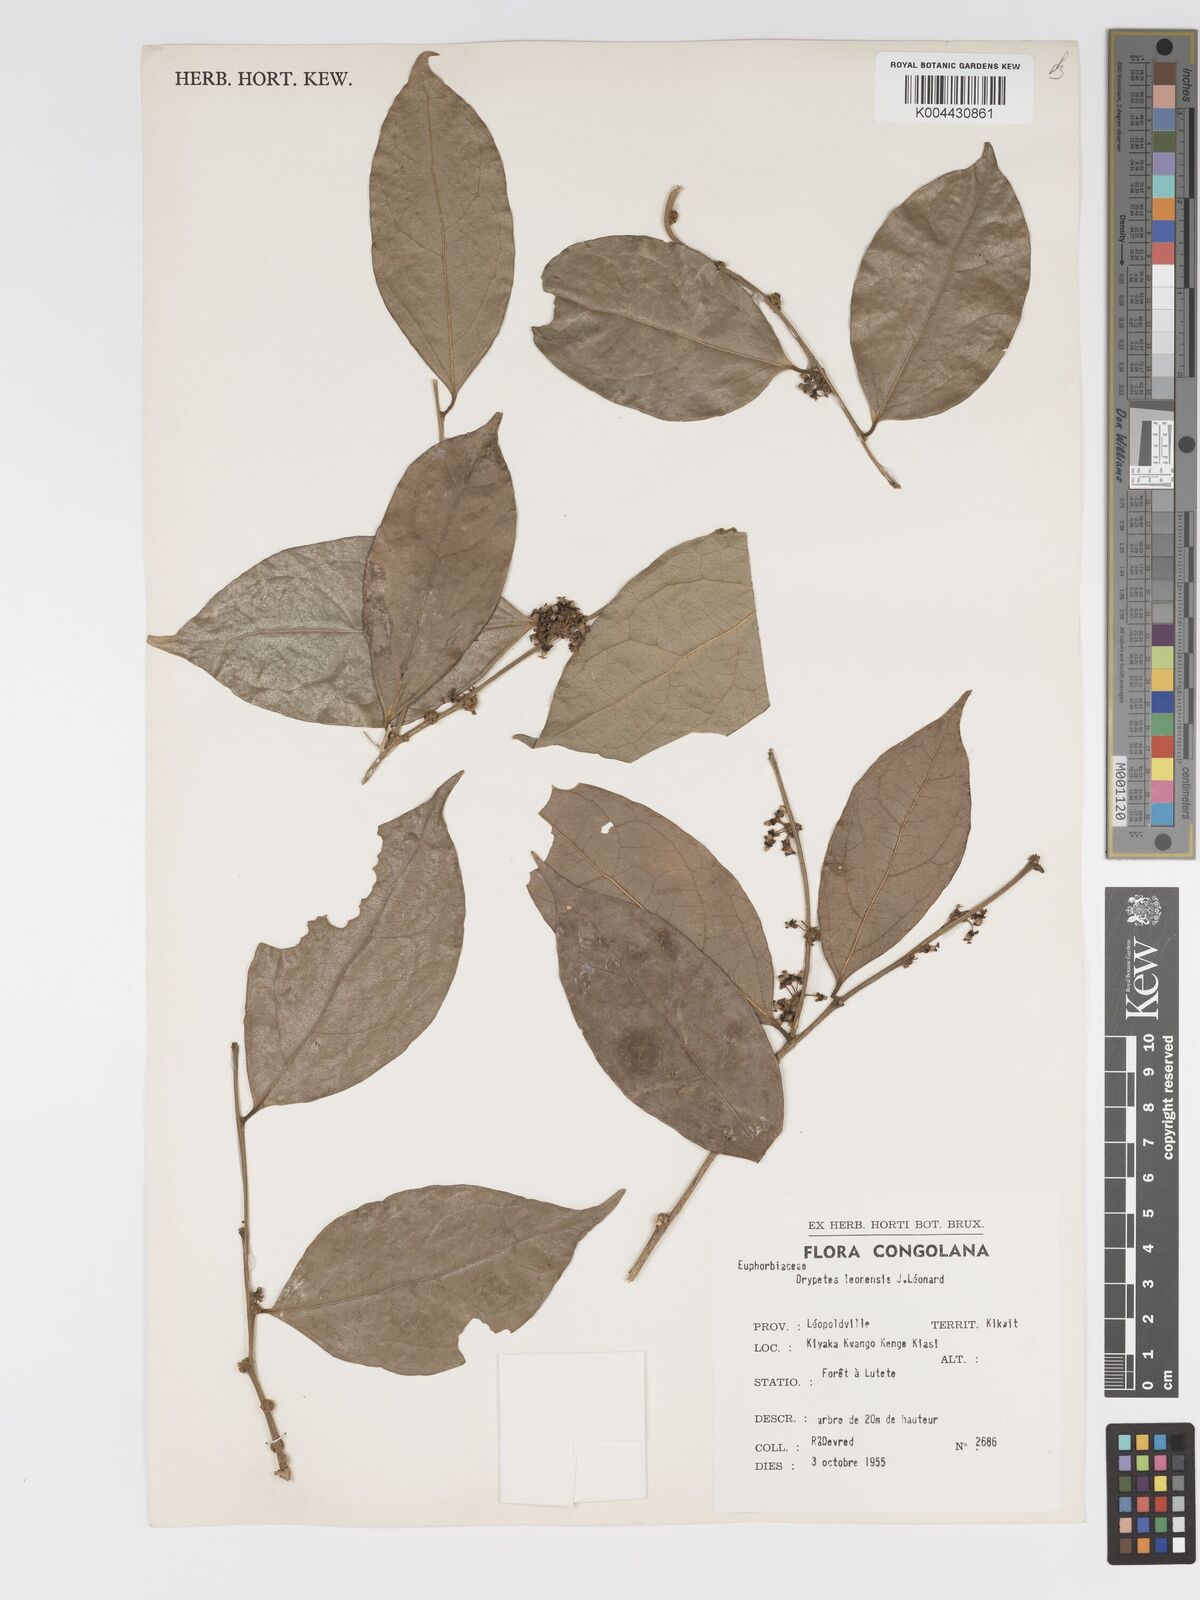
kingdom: Plantae
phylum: Tracheophyta
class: Magnoliopsida
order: Malpighiales
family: Putranjivaceae
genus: Drypetes
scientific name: Drypetes
